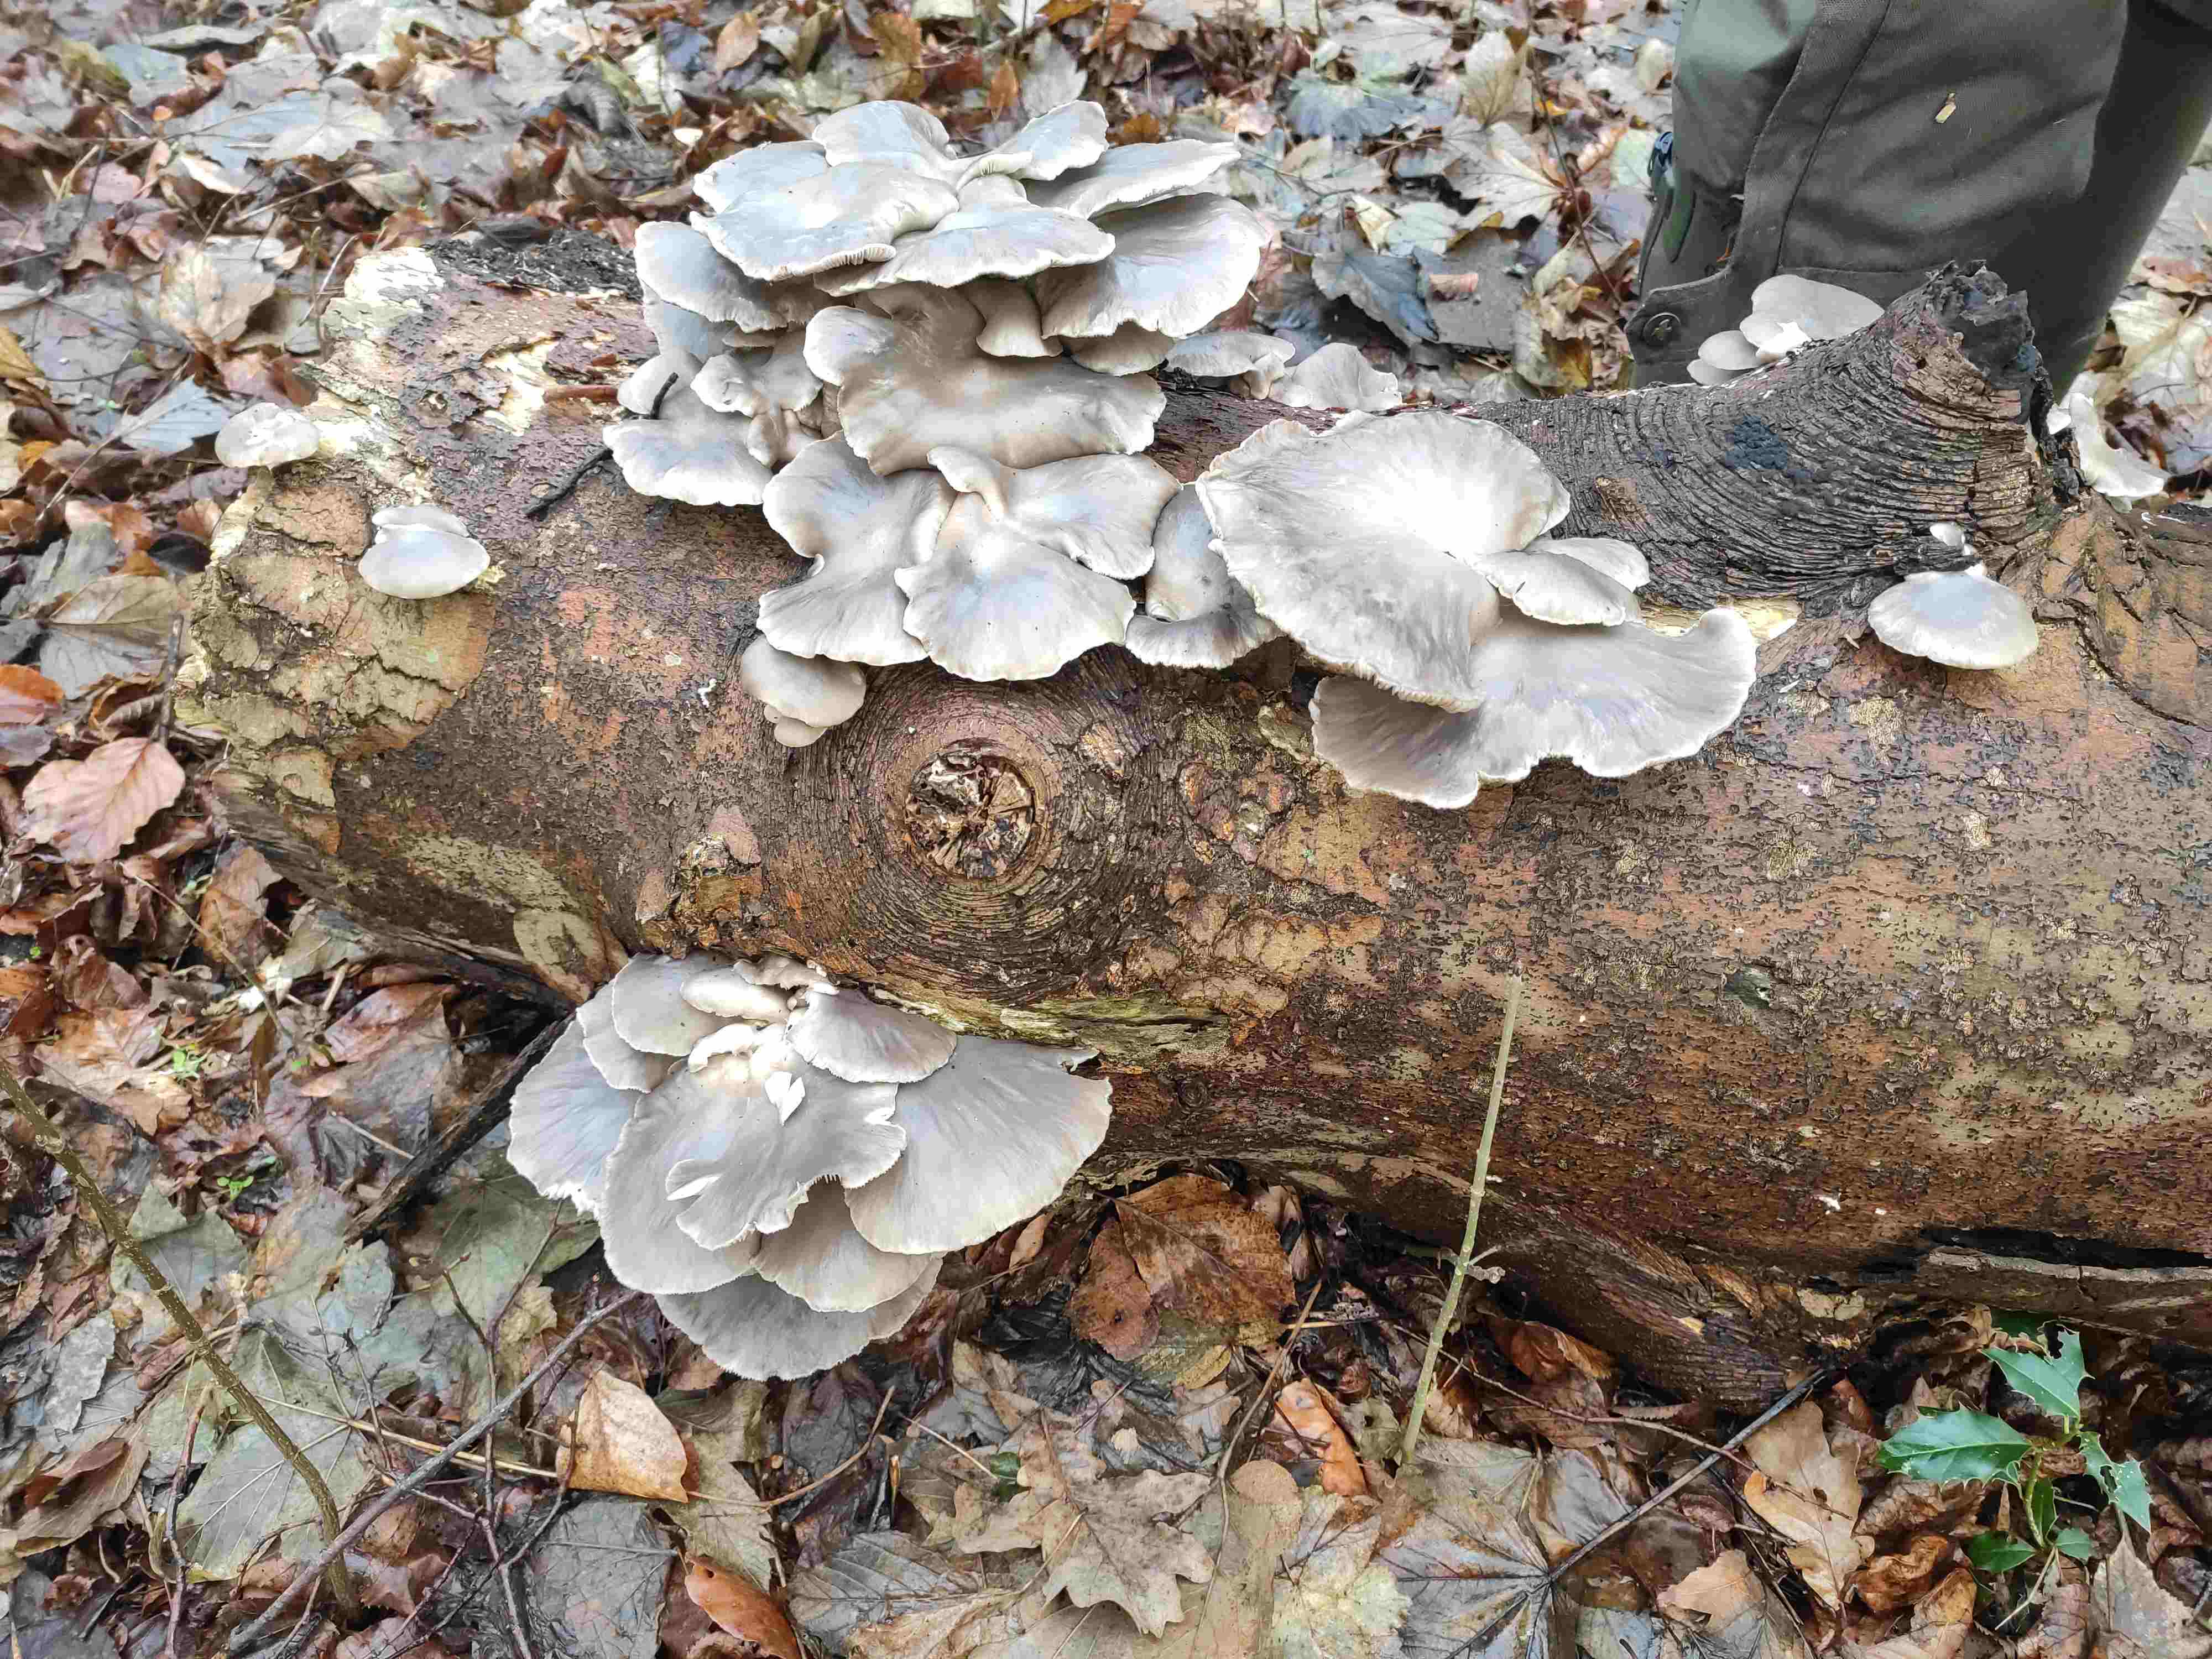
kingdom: Fungi
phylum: Basidiomycota
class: Agaricomycetes
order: Agaricales
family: Pleurotaceae
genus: Pleurotus
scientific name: Pleurotus ostreatus
